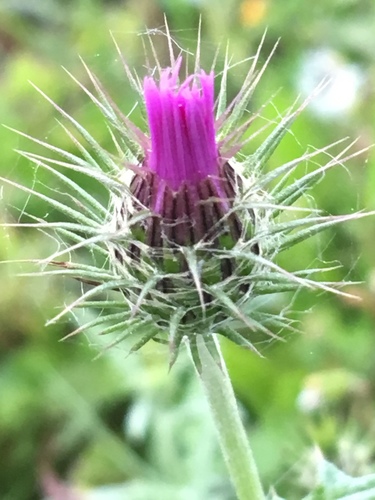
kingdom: Plantae
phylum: Tracheophyta
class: Magnoliopsida
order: Asterales
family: Asteraceae
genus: Galactites
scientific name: Galactites tomentosa
